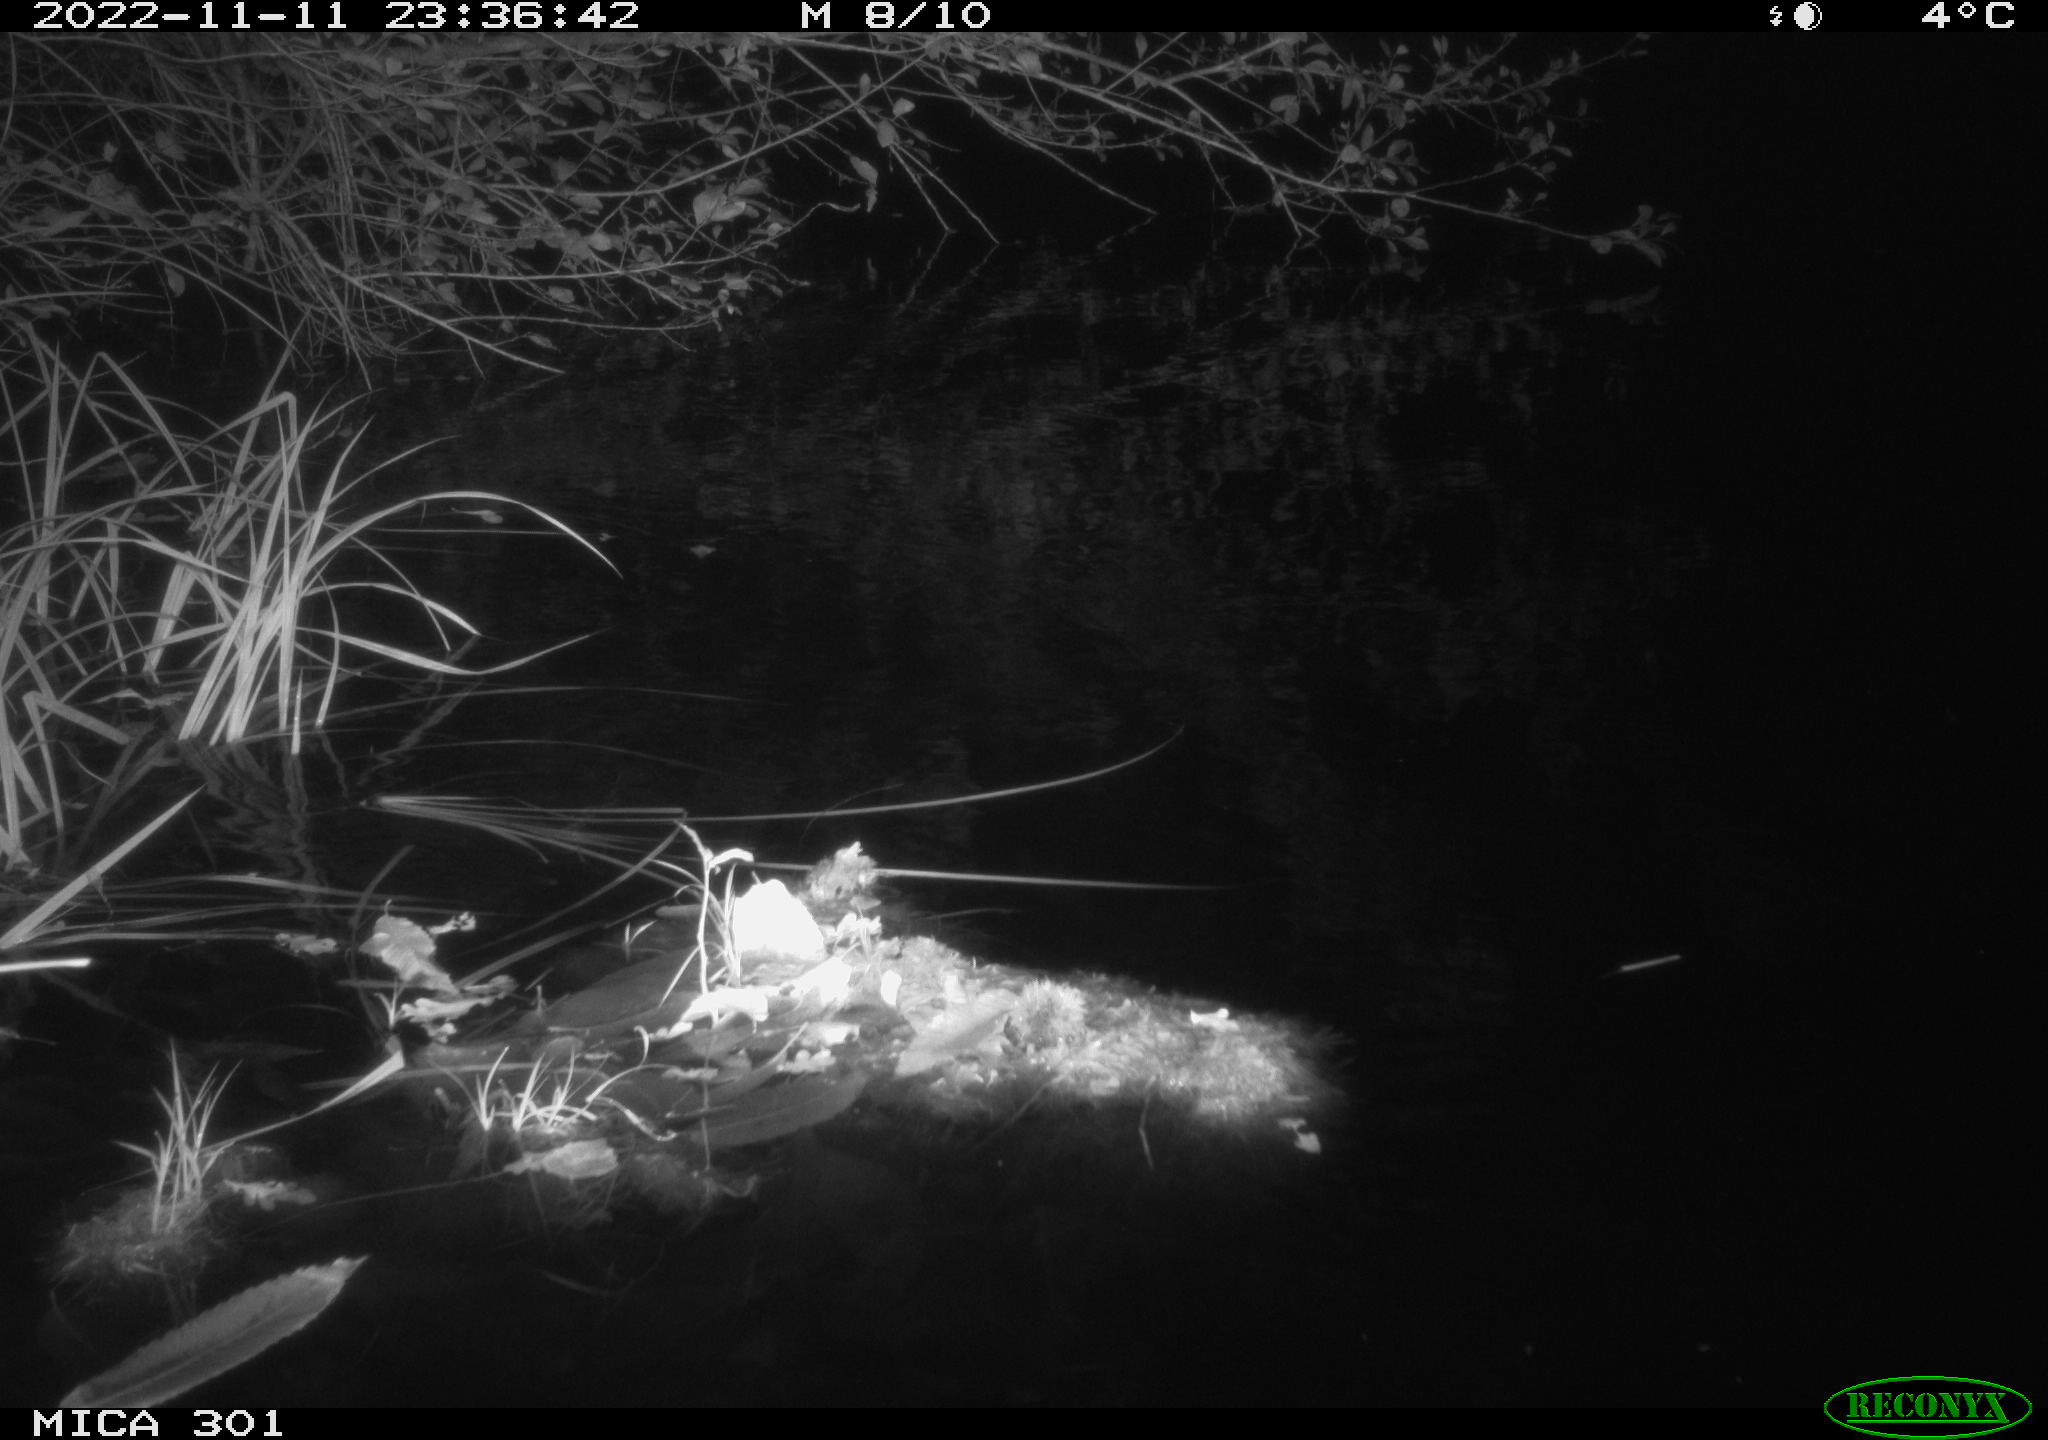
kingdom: Animalia
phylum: Chordata
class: Mammalia
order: Rodentia
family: Castoridae
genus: Castor
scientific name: Castor fiber
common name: Eurasian beaver
